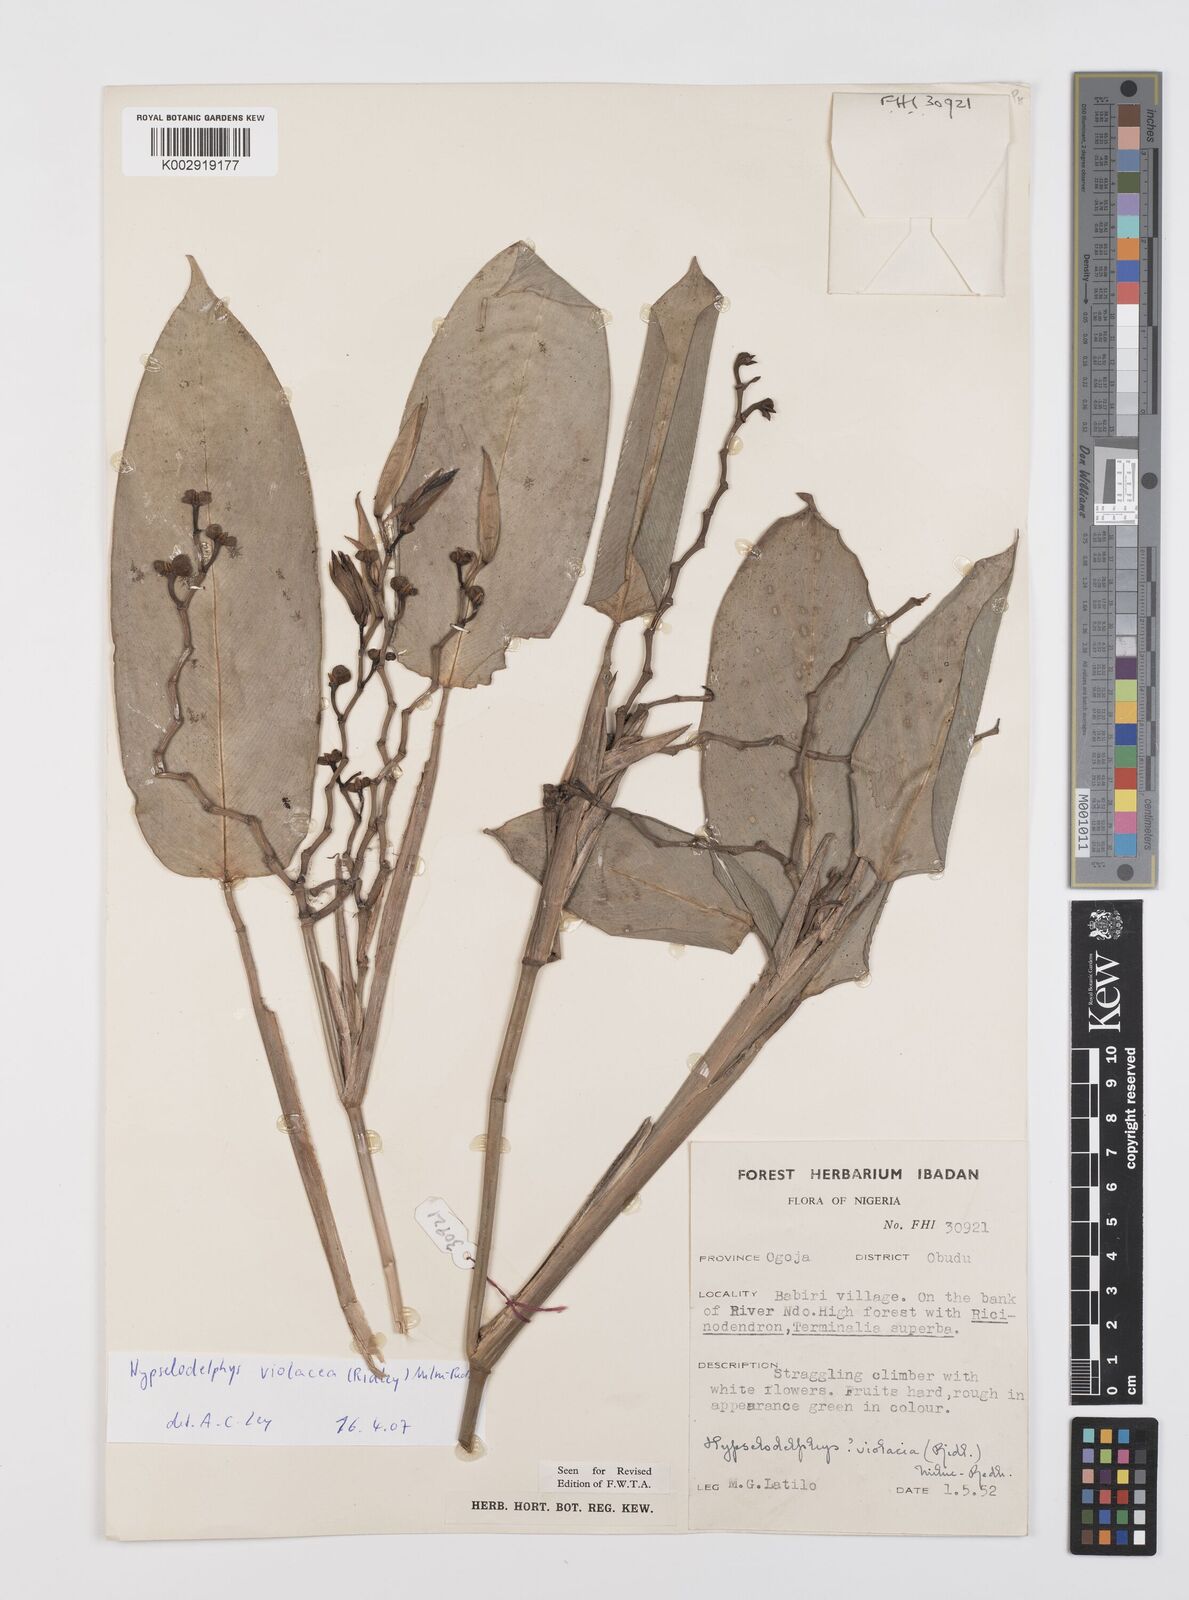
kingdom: Plantae
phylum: Tracheophyta
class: Liliopsida
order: Zingiberales
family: Marantaceae
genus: Hypselodelphys
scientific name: Hypselodelphys violacea
